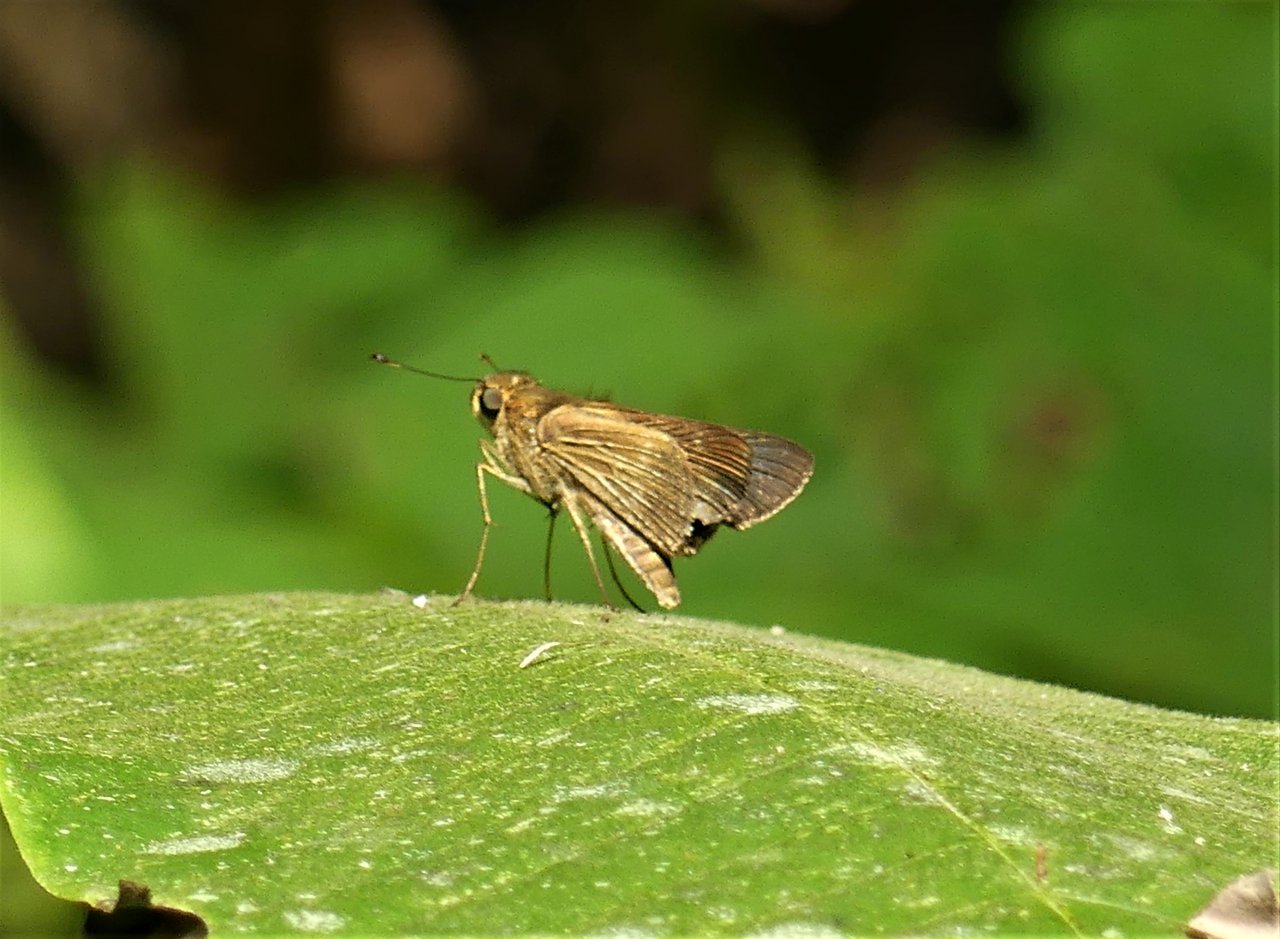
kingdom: Animalia
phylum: Arthropoda
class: Insecta
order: Lepidoptera
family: Hesperiidae
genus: Callimormus
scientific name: Callimormus juventus
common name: Juventus Skipper
